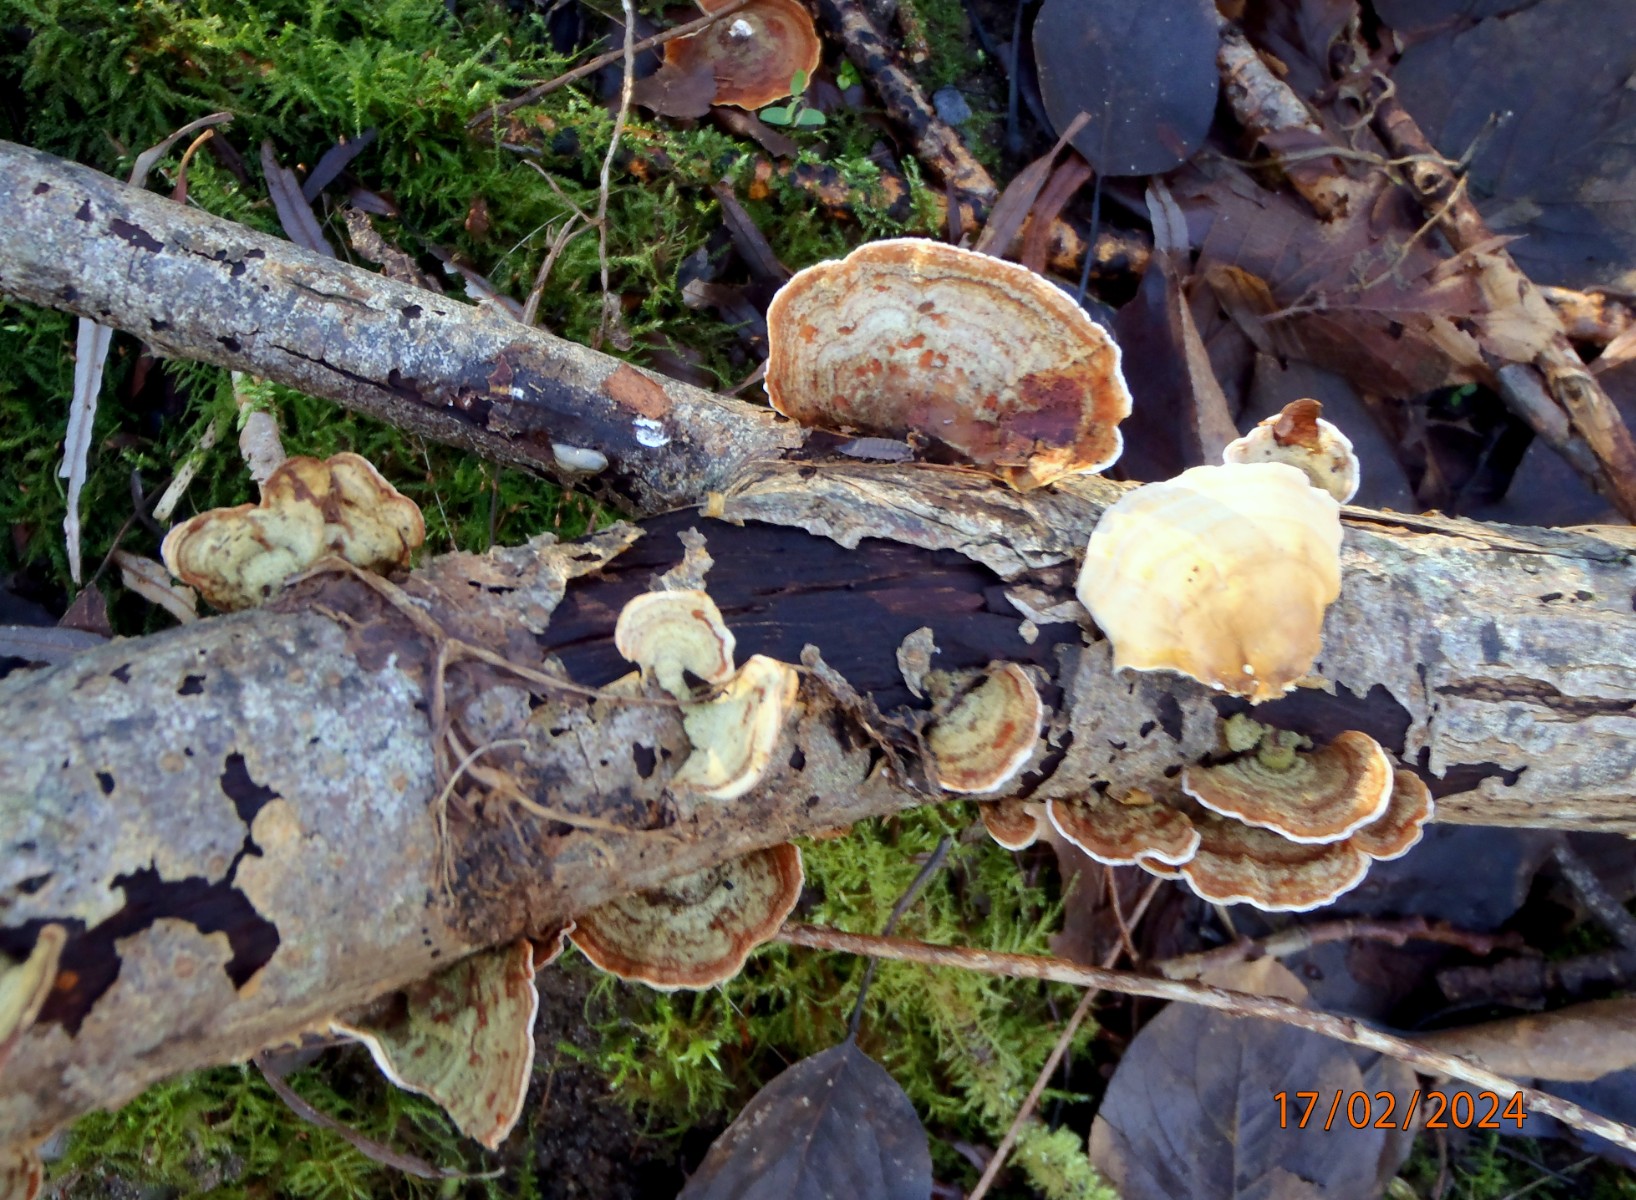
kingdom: Fungi
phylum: Basidiomycota
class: Agaricomycetes
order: Russulales
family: Stereaceae
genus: Stereum
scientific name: Stereum subtomentosum
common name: smuk lædersvamp
